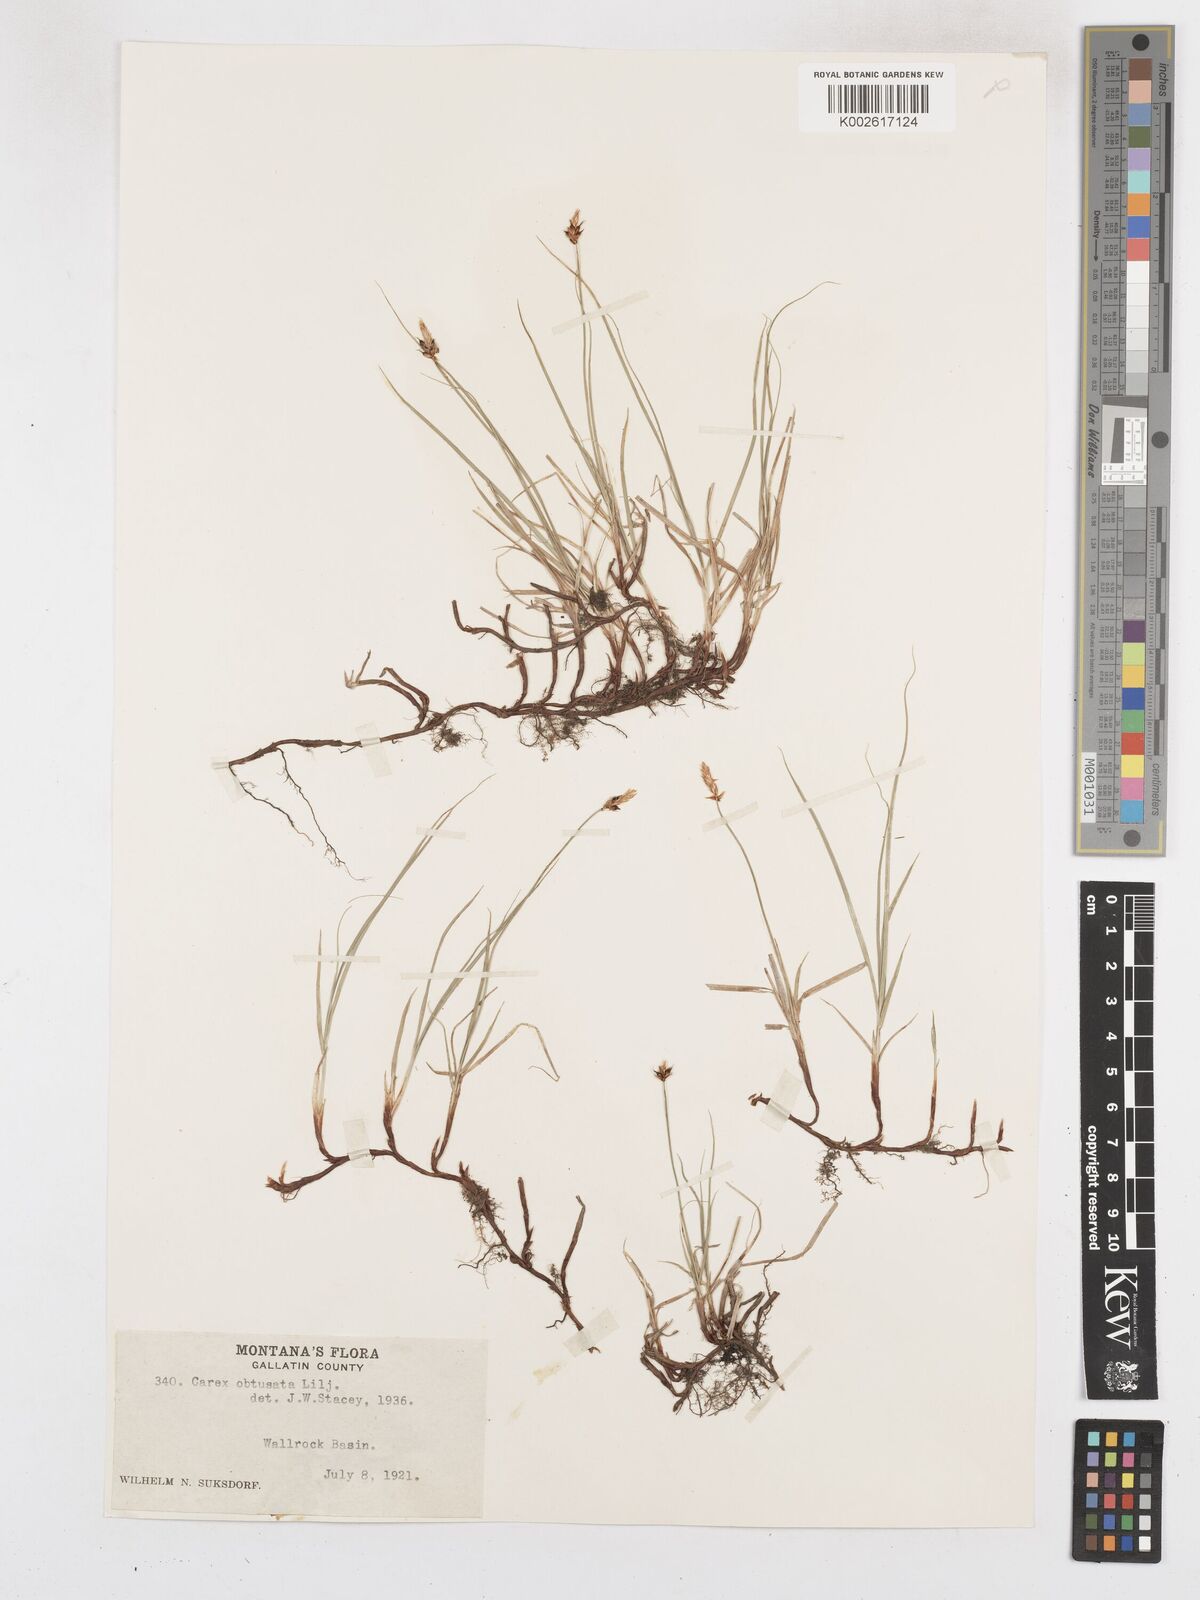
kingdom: Plantae
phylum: Tracheophyta
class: Liliopsida
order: Poales
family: Cyperaceae
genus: Carex
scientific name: Carex obtusata
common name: Blunt sedge
